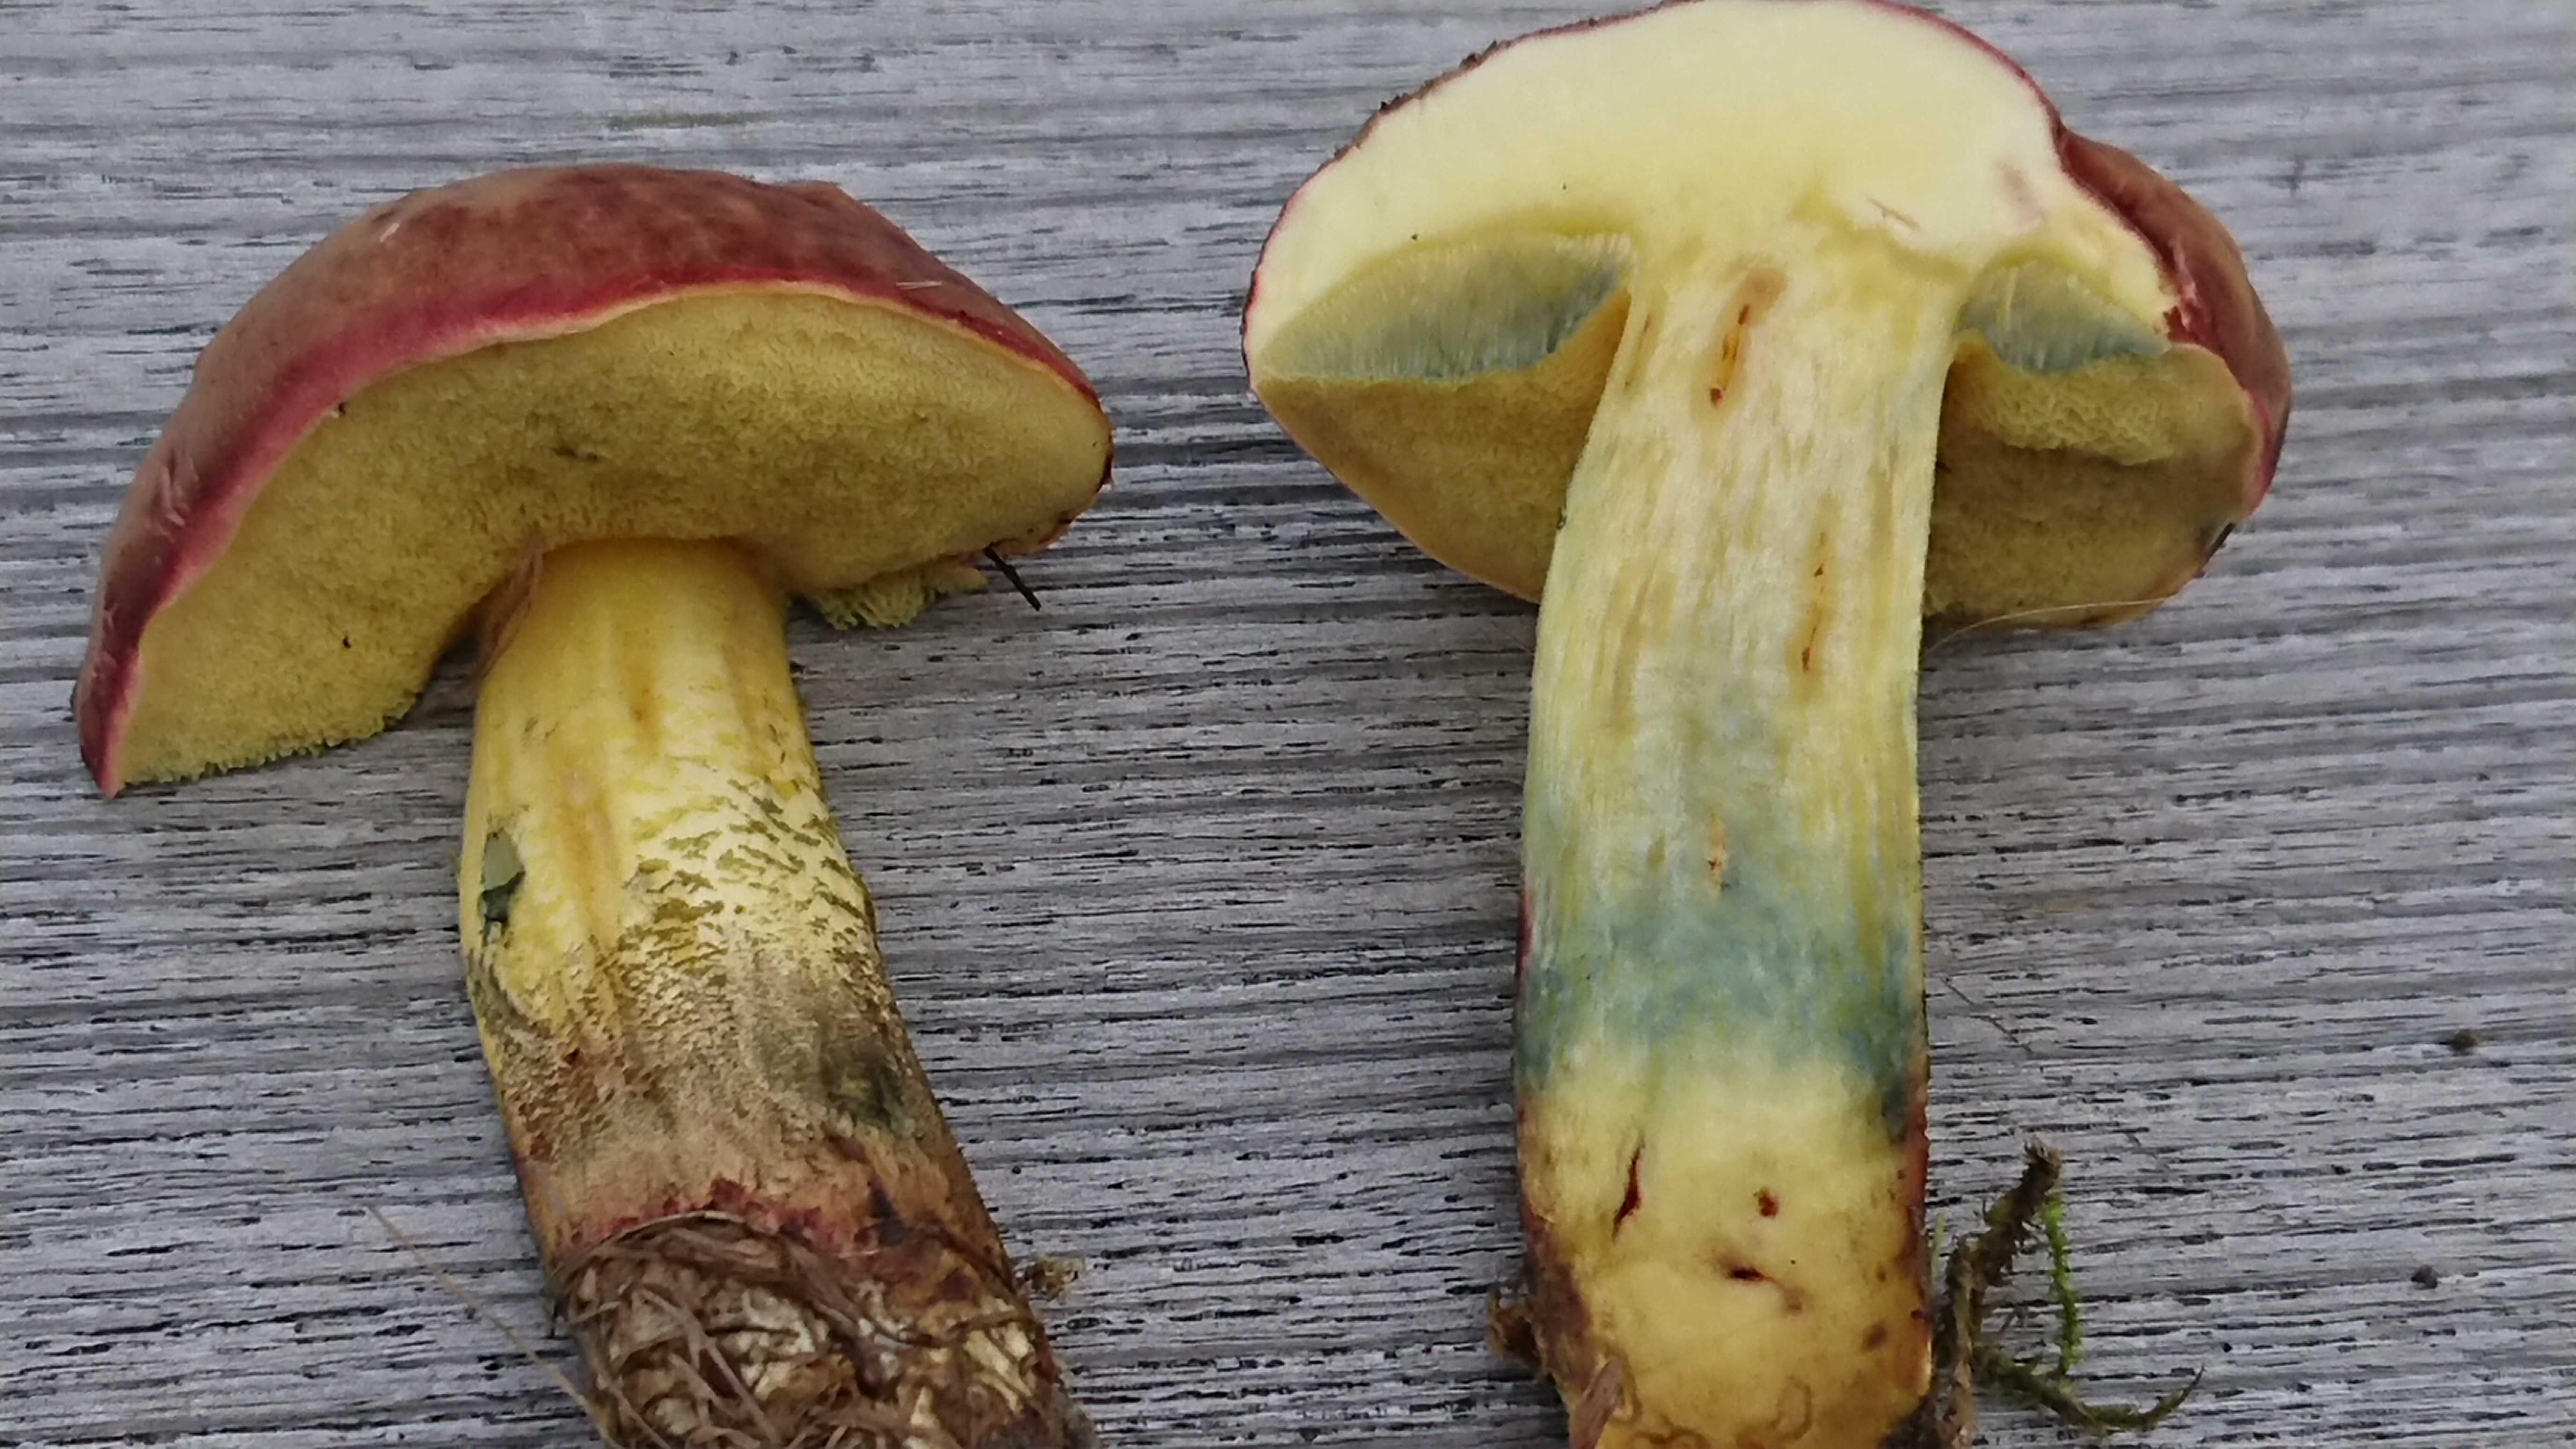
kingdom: Fungi
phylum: Basidiomycota
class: Agaricomycetes
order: Boletales
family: Boletaceae
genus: Xerocomellus
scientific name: Xerocomellus pruinatus
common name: dugget rørhat
